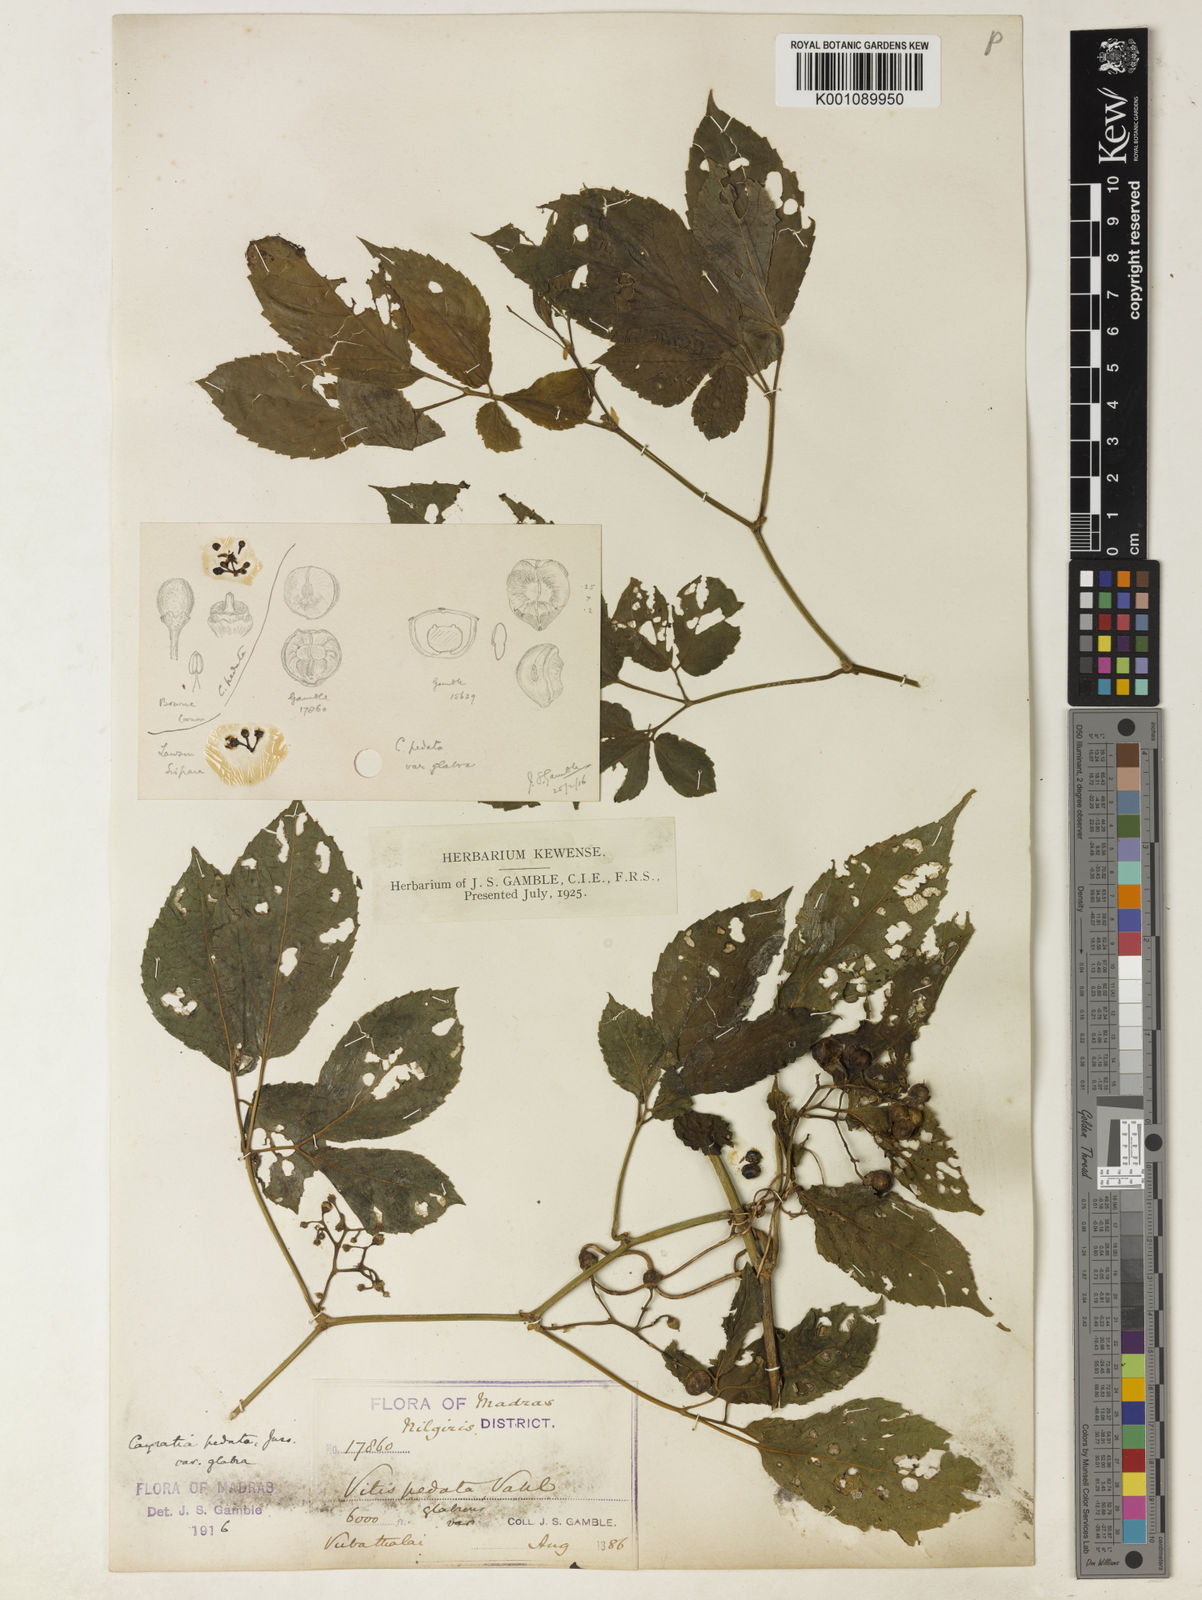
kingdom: Plantae
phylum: Tracheophyta
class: Magnoliopsida
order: Vitales
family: Vitaceae
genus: Cayratia
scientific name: Cayratia
